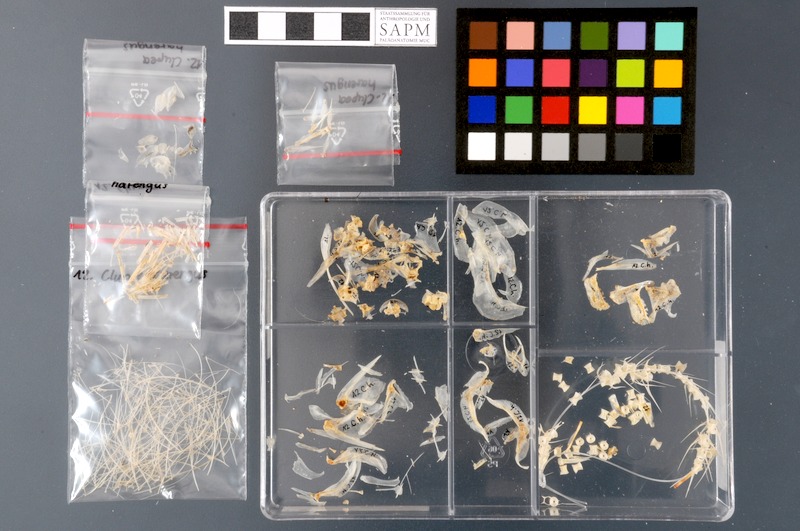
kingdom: Animalia
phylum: Chordata
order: Clupeiformes
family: Clupeidae
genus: Clupea
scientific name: Clupea harengus
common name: Herring
